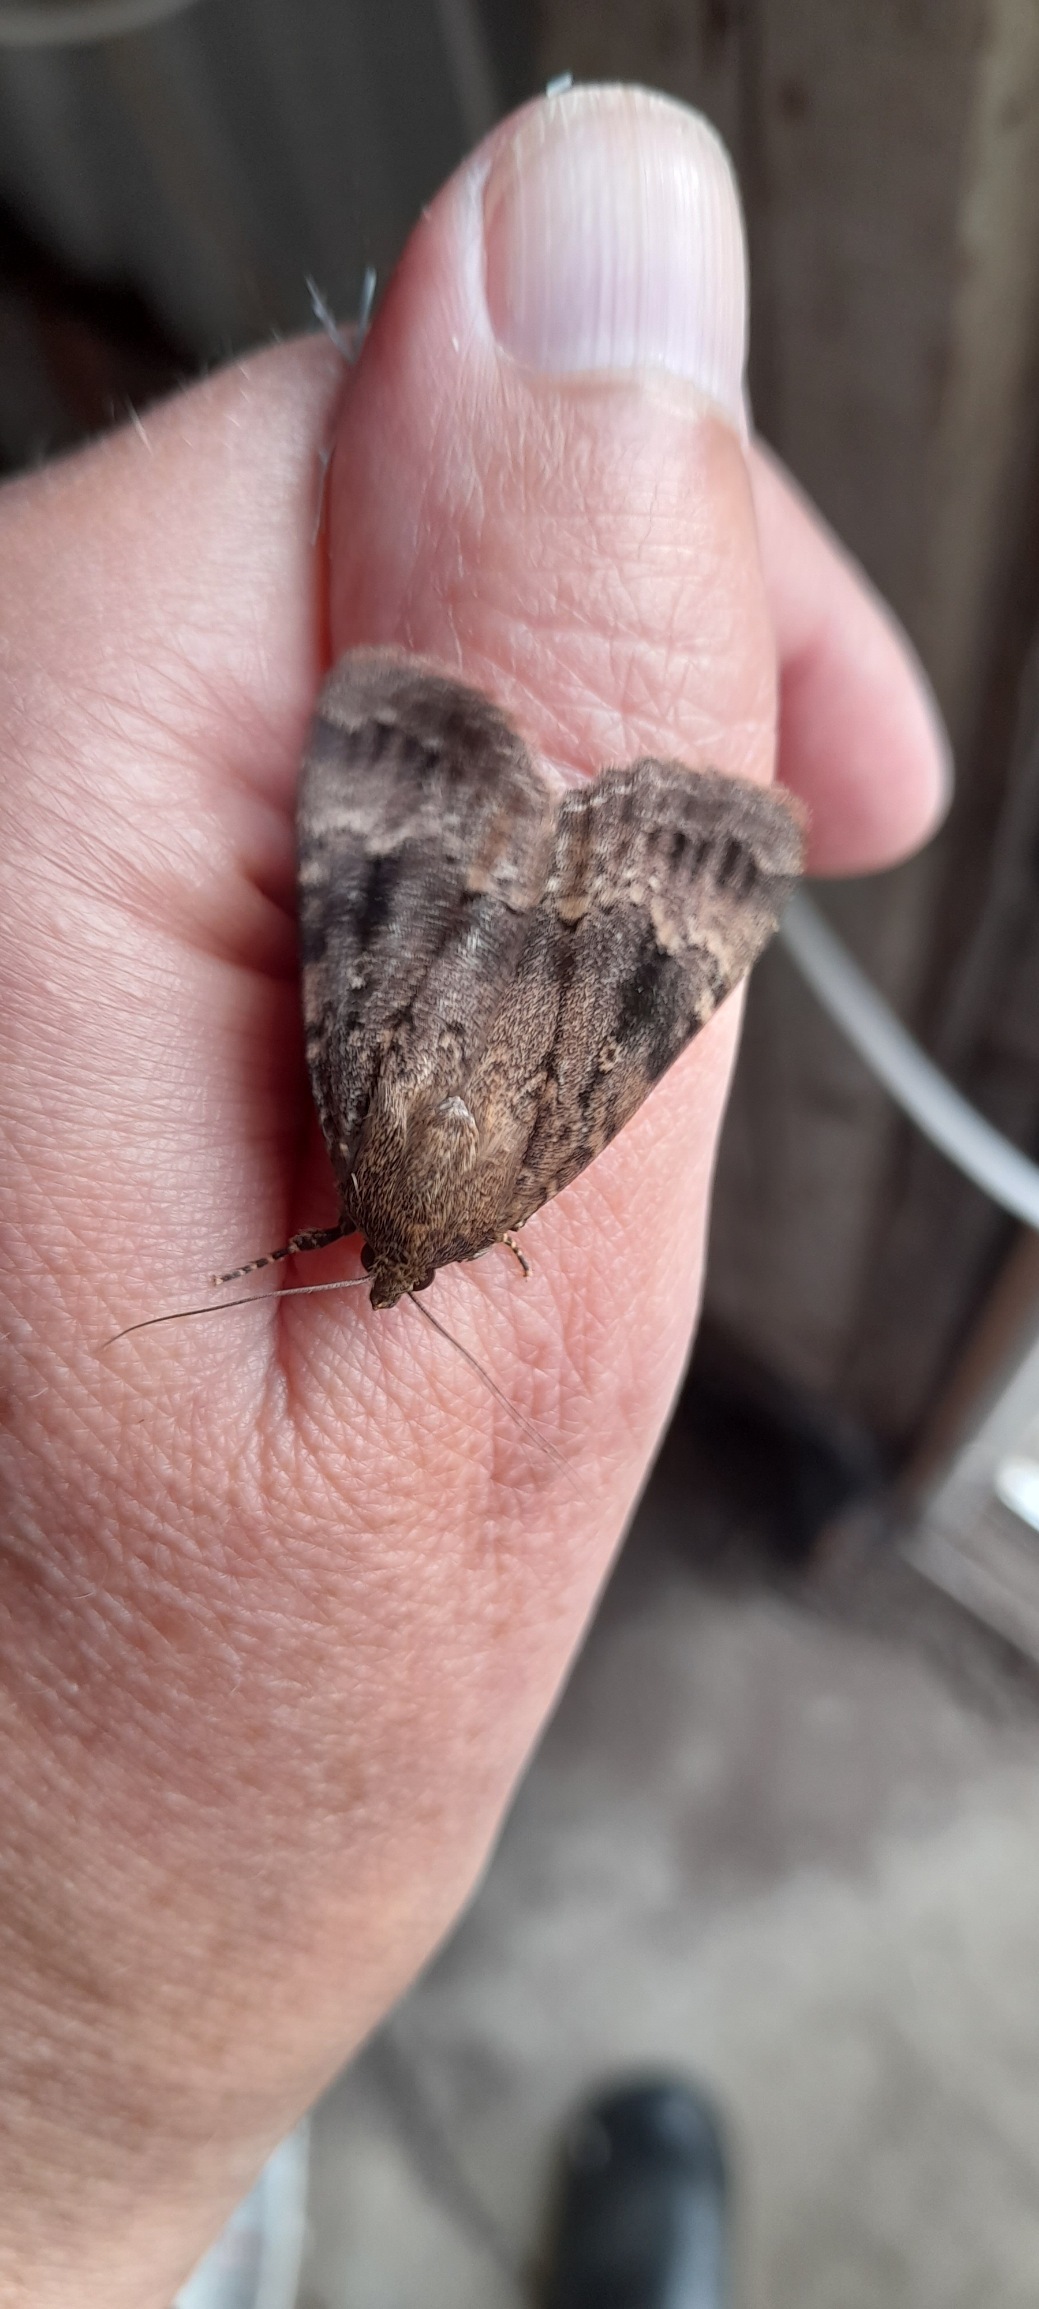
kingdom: Animalia
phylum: Arthropoda
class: Insecta
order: Lepidoptera
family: Noctuidae
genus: Amphipyra
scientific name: Amphipyra pyramidea
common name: Pyramideugle
